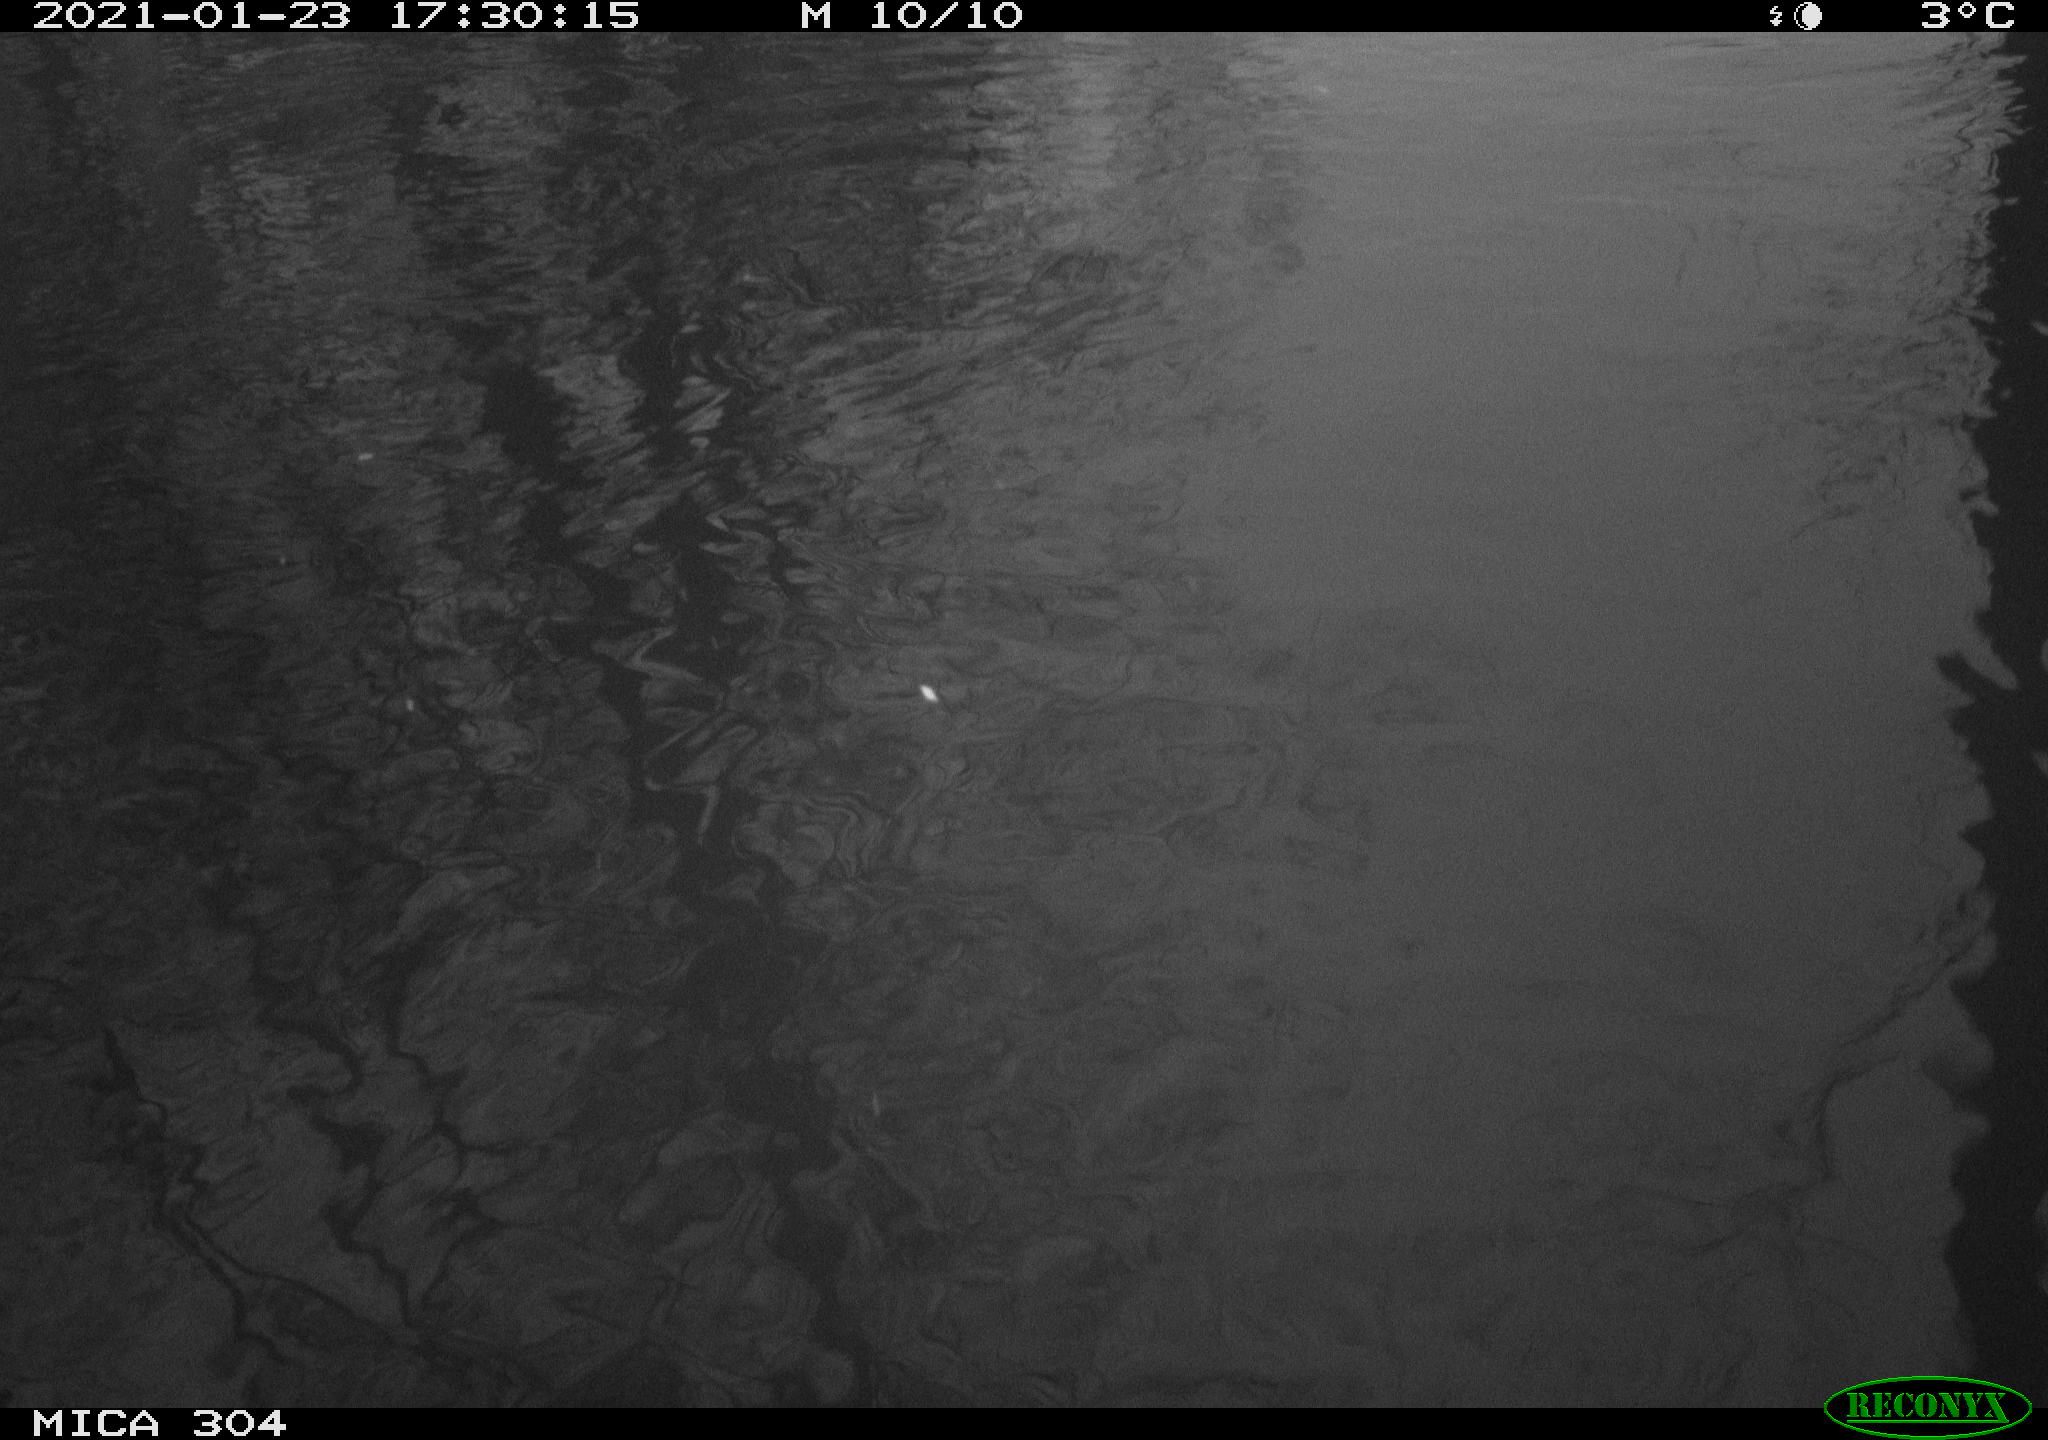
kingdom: Animalia
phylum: Chordata
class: Aves
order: Gruiformes
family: Rallidae
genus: Fulica
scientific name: Fulica atra
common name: Eurasian coot
